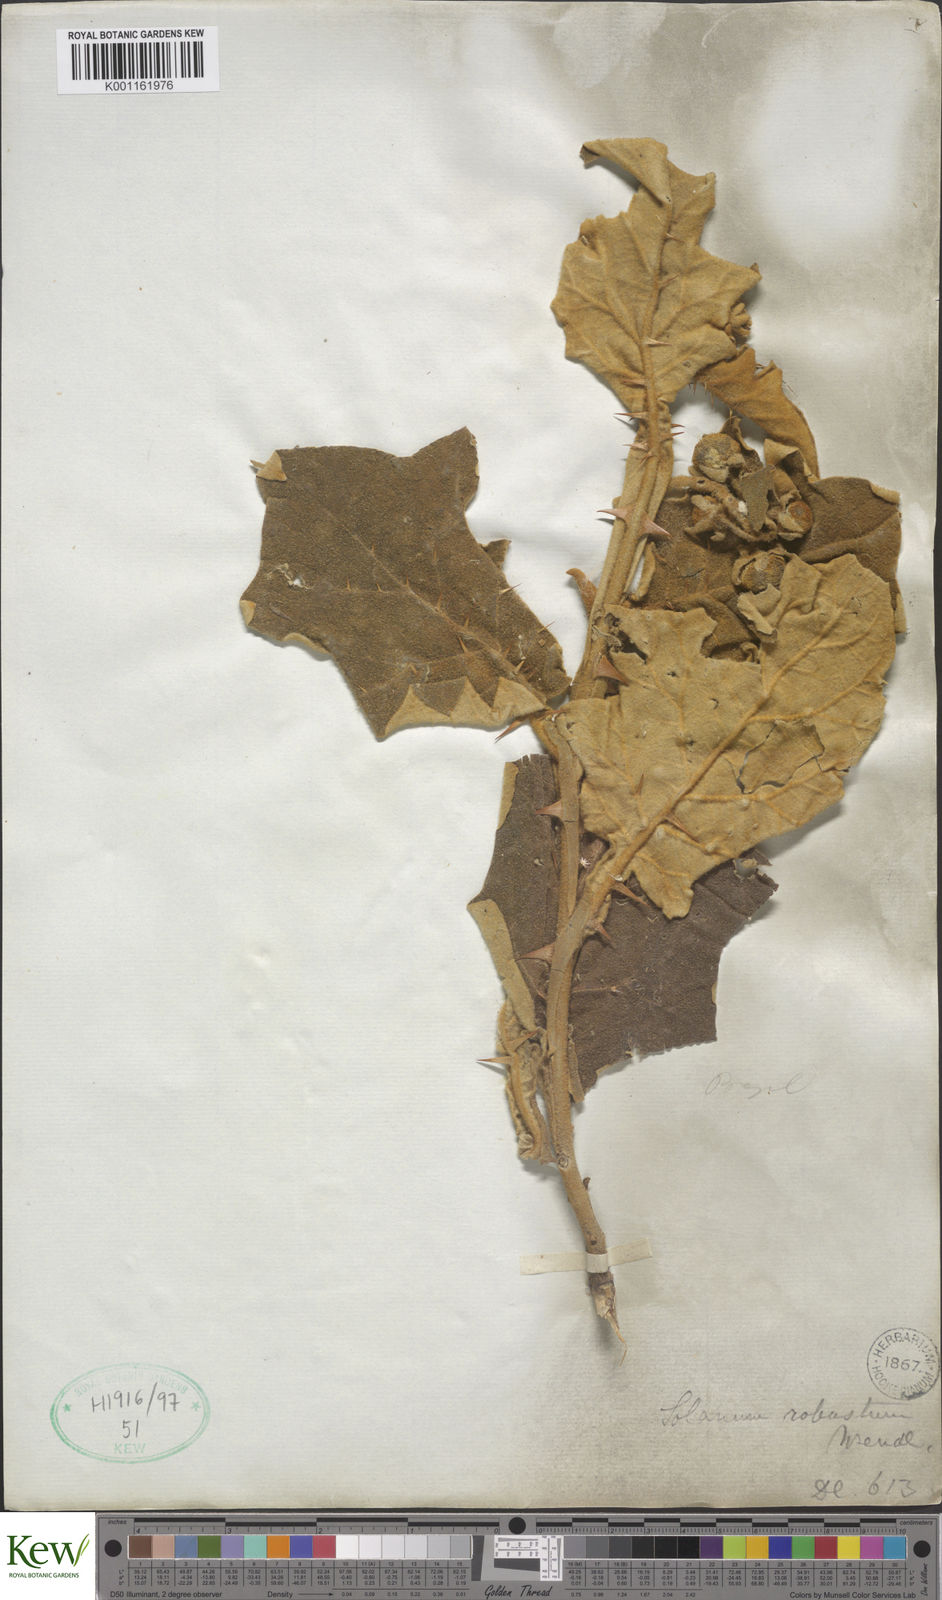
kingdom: Plantae
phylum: Tracheophyta
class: Magnoliopsida
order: Solanales
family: Solanaceae
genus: Solanum
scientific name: Solanum robustum
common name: Shrubby nightshade
